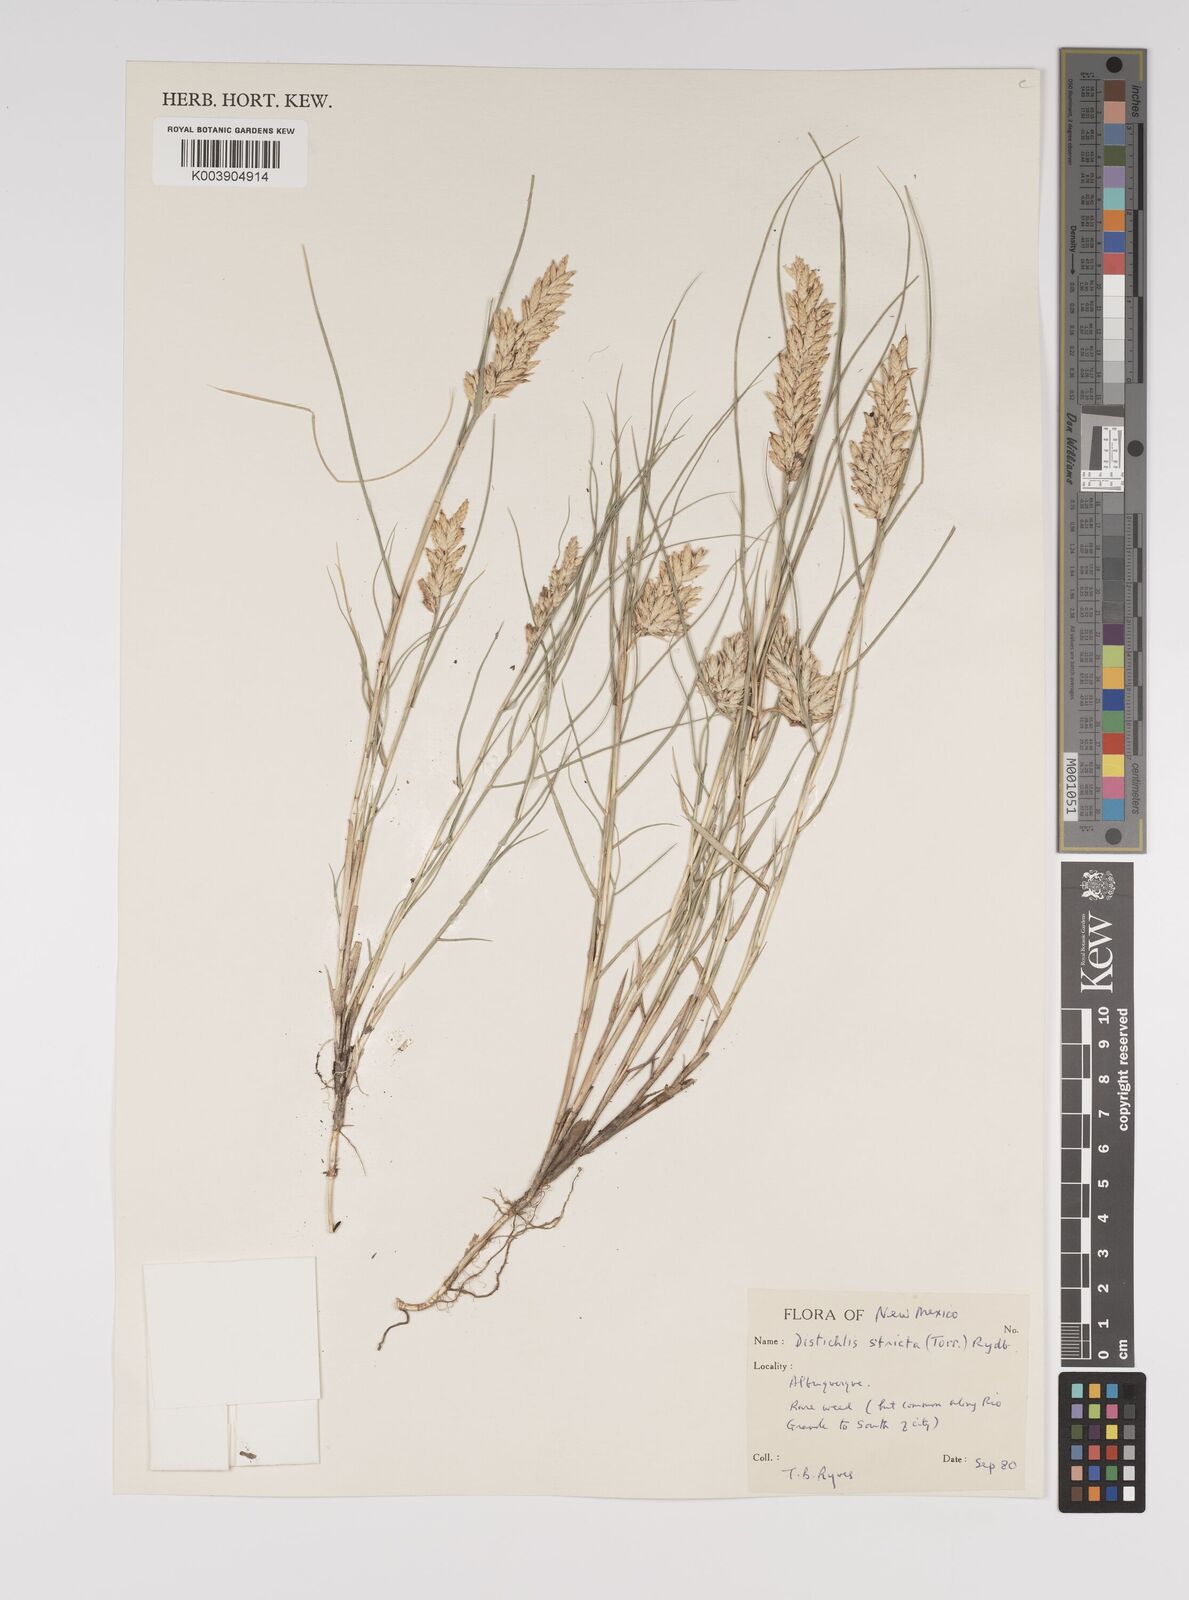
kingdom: Plantae
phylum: Tracheophyta
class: Liliopsida
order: Poales
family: Poaceae
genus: Distichlis
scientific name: Distichlis spicata
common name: Saltgrass
